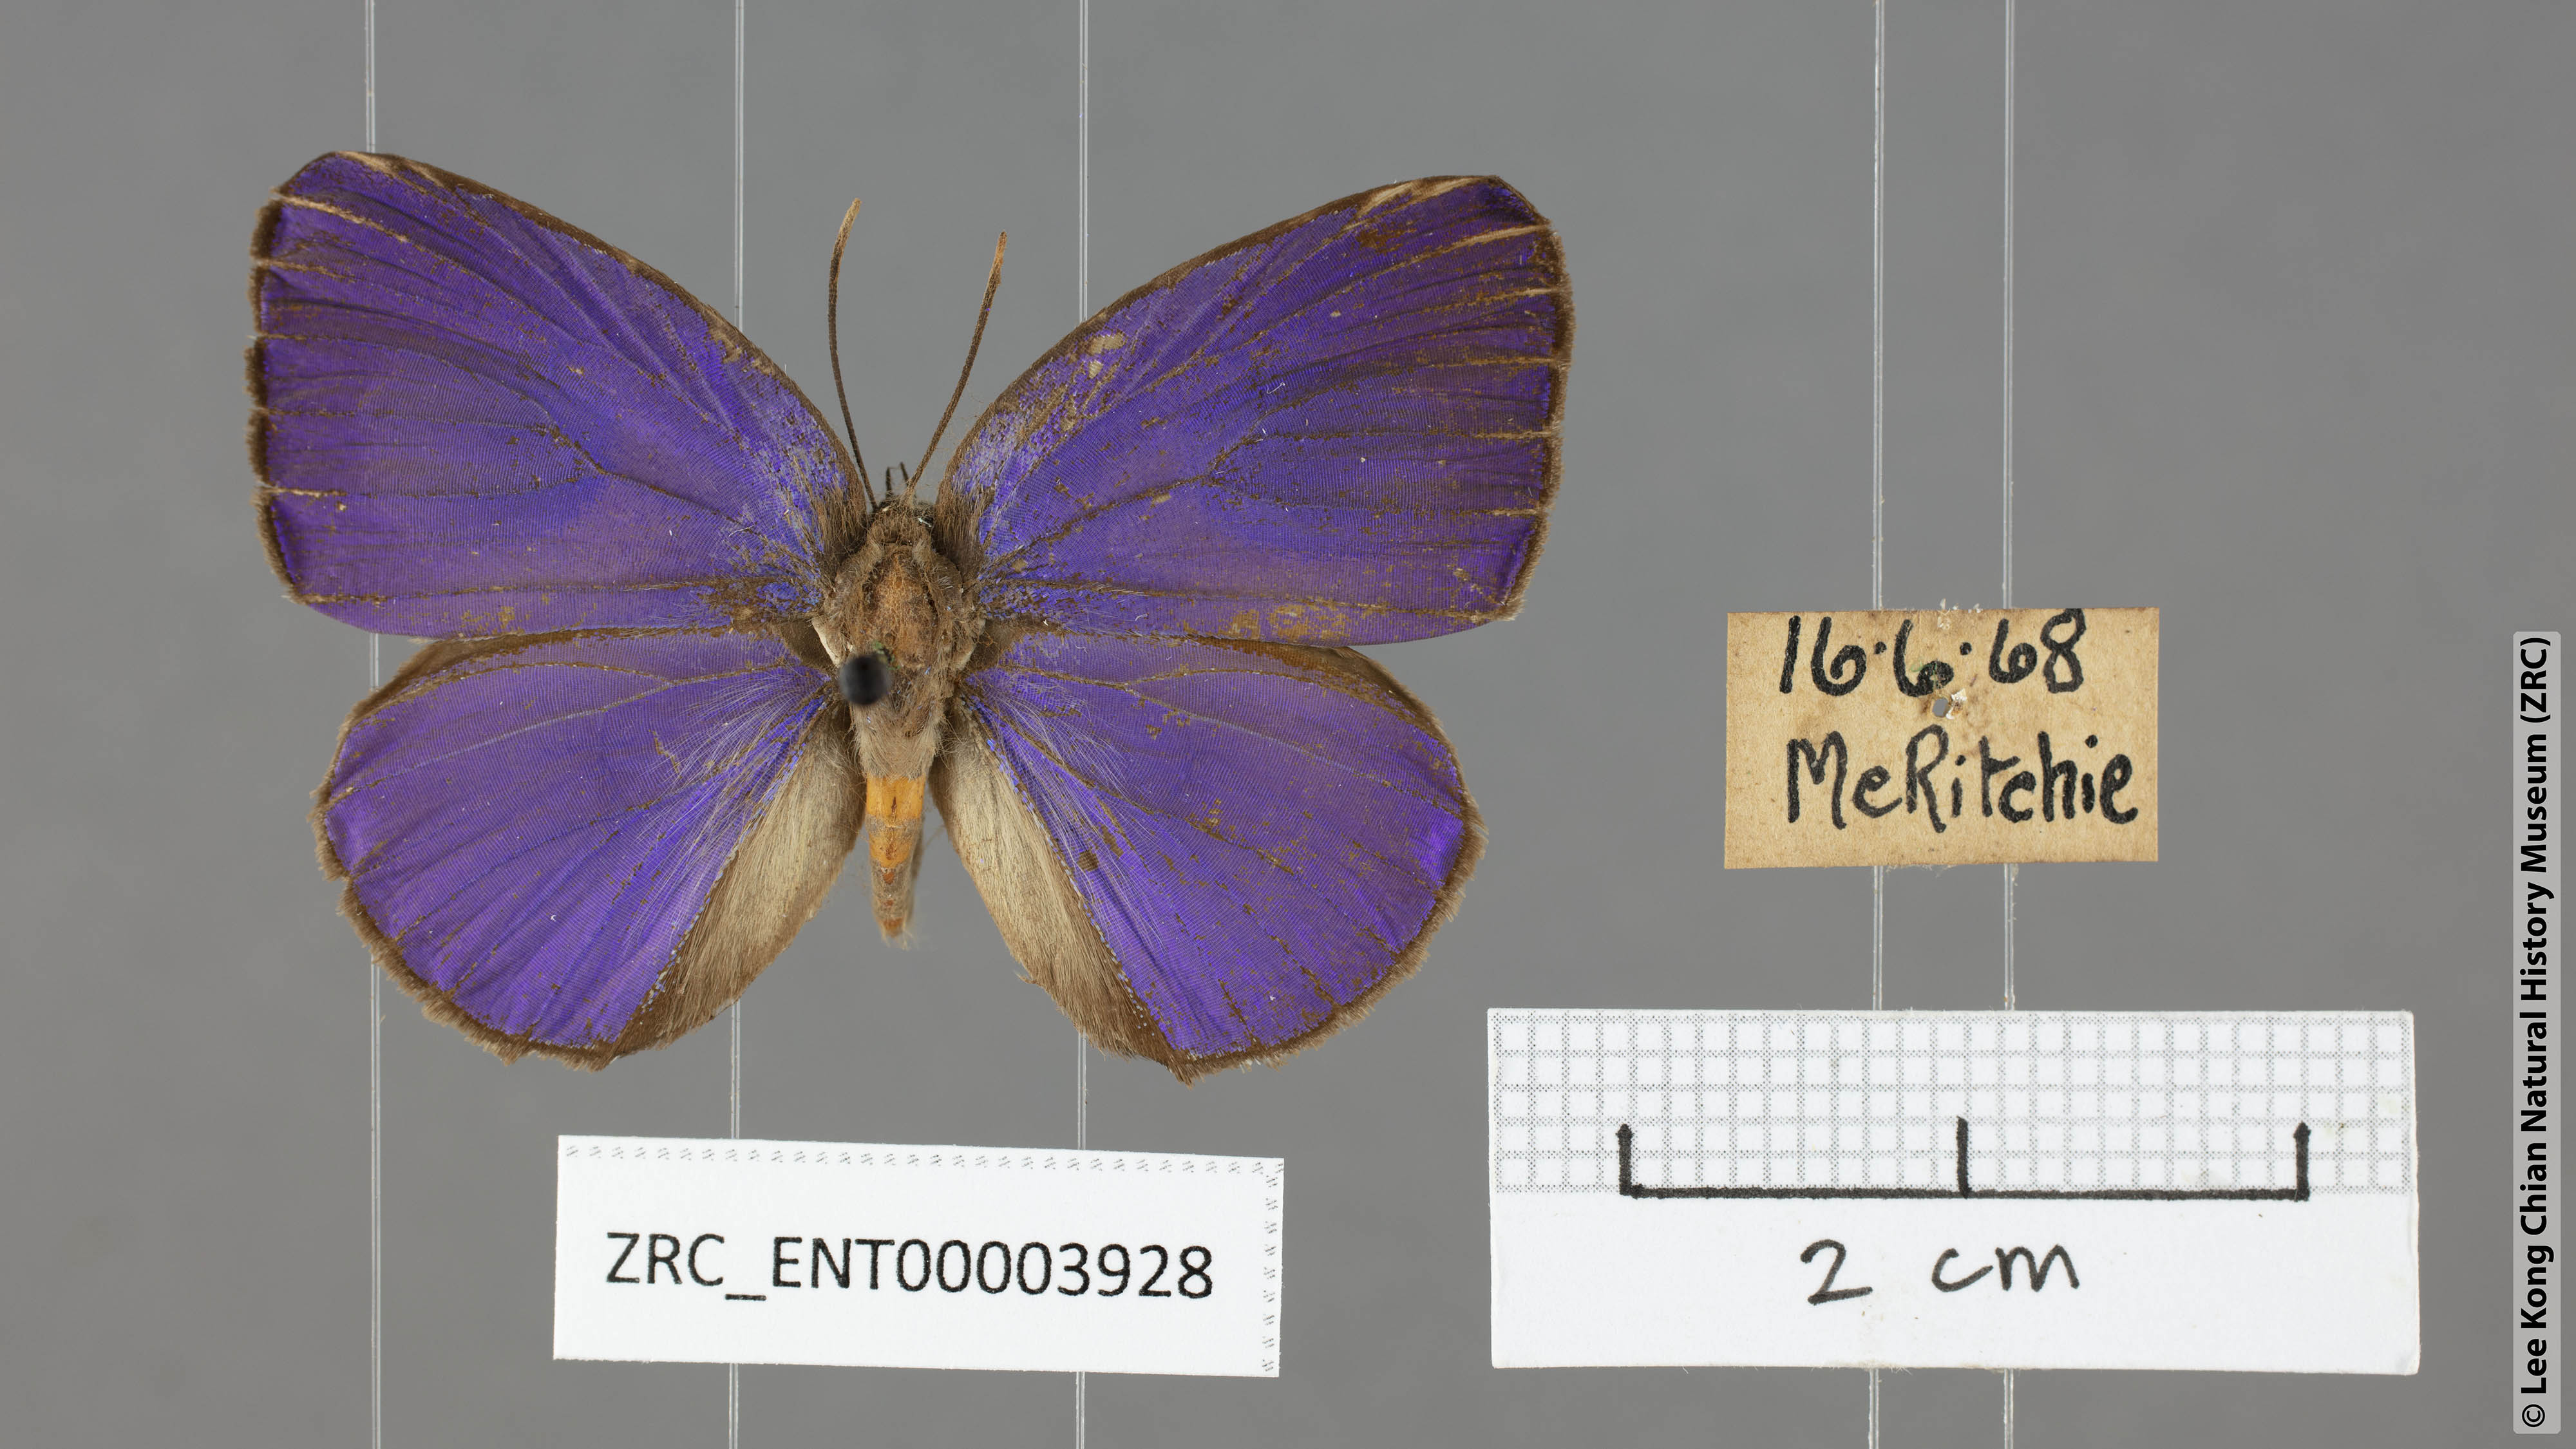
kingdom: Animalia
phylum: Arthropoda
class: Insecta
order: Lepidoptera
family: Lycaenidae
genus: Arhopala
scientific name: Arhopala epimuta
